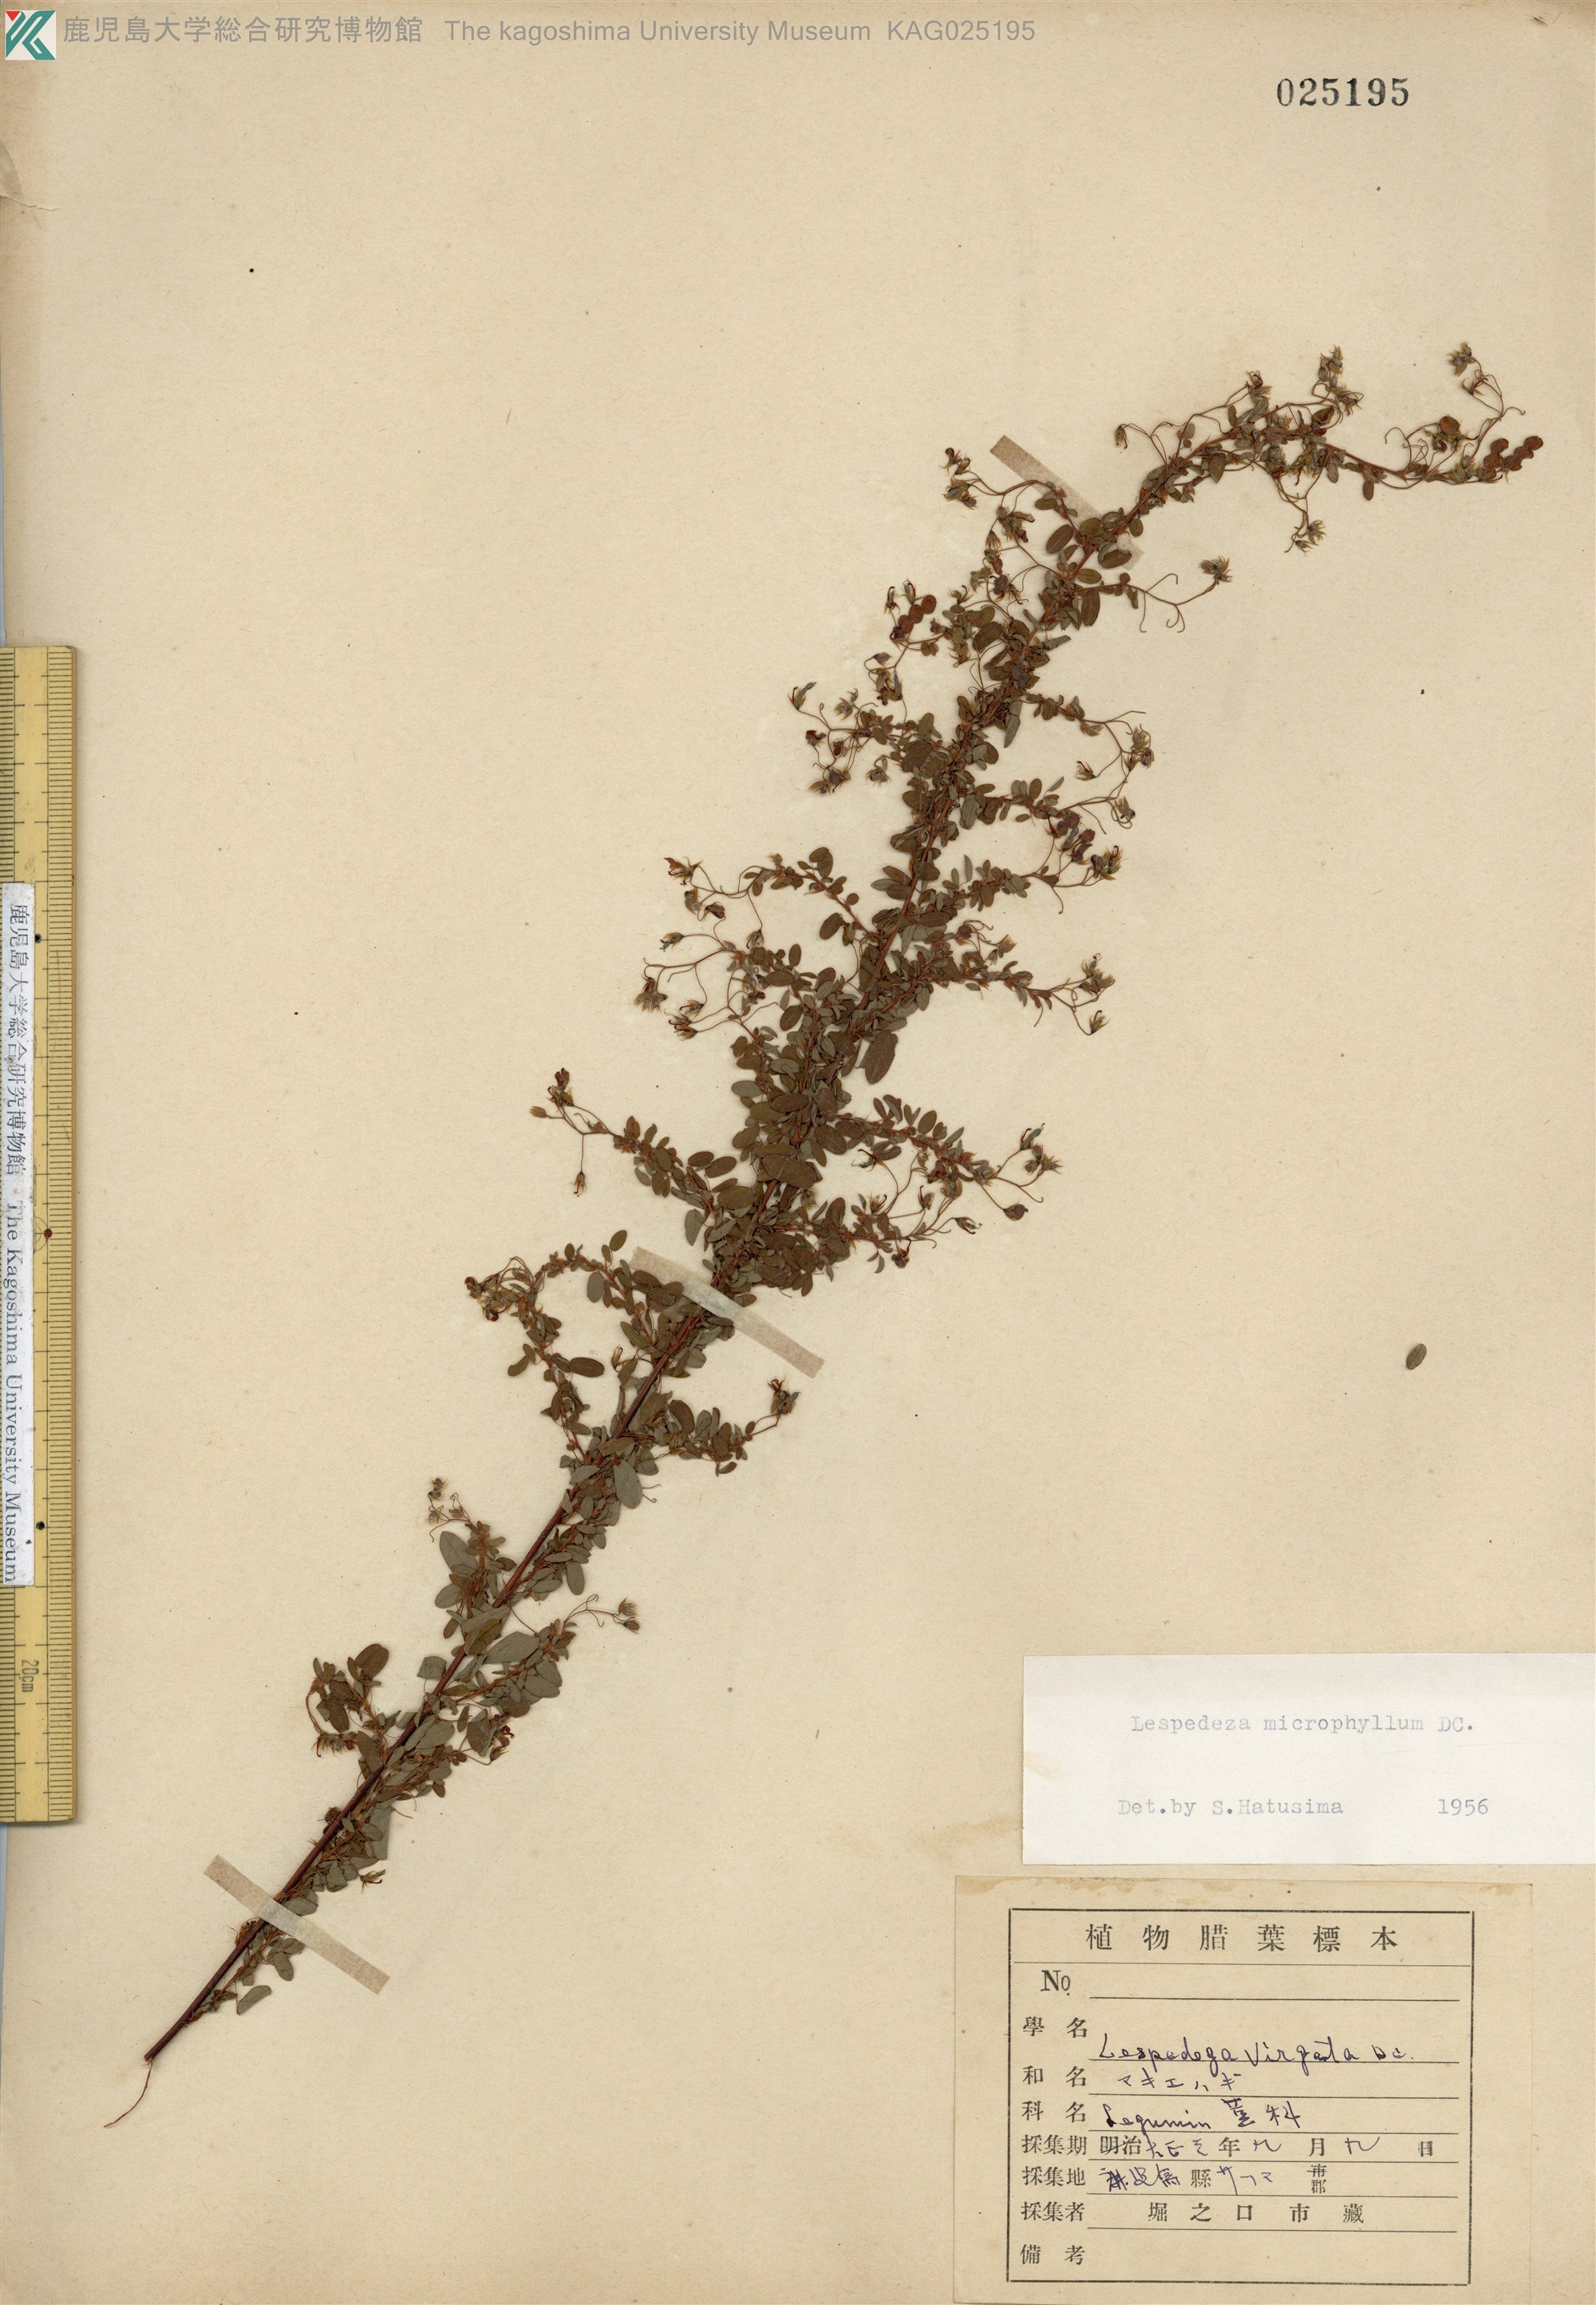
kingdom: Plantae
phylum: Tracheophyta
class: Magnoliopsida
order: Fabales
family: Fabaceae
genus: Leptodesmia
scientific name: Leptodesmia microphylla
